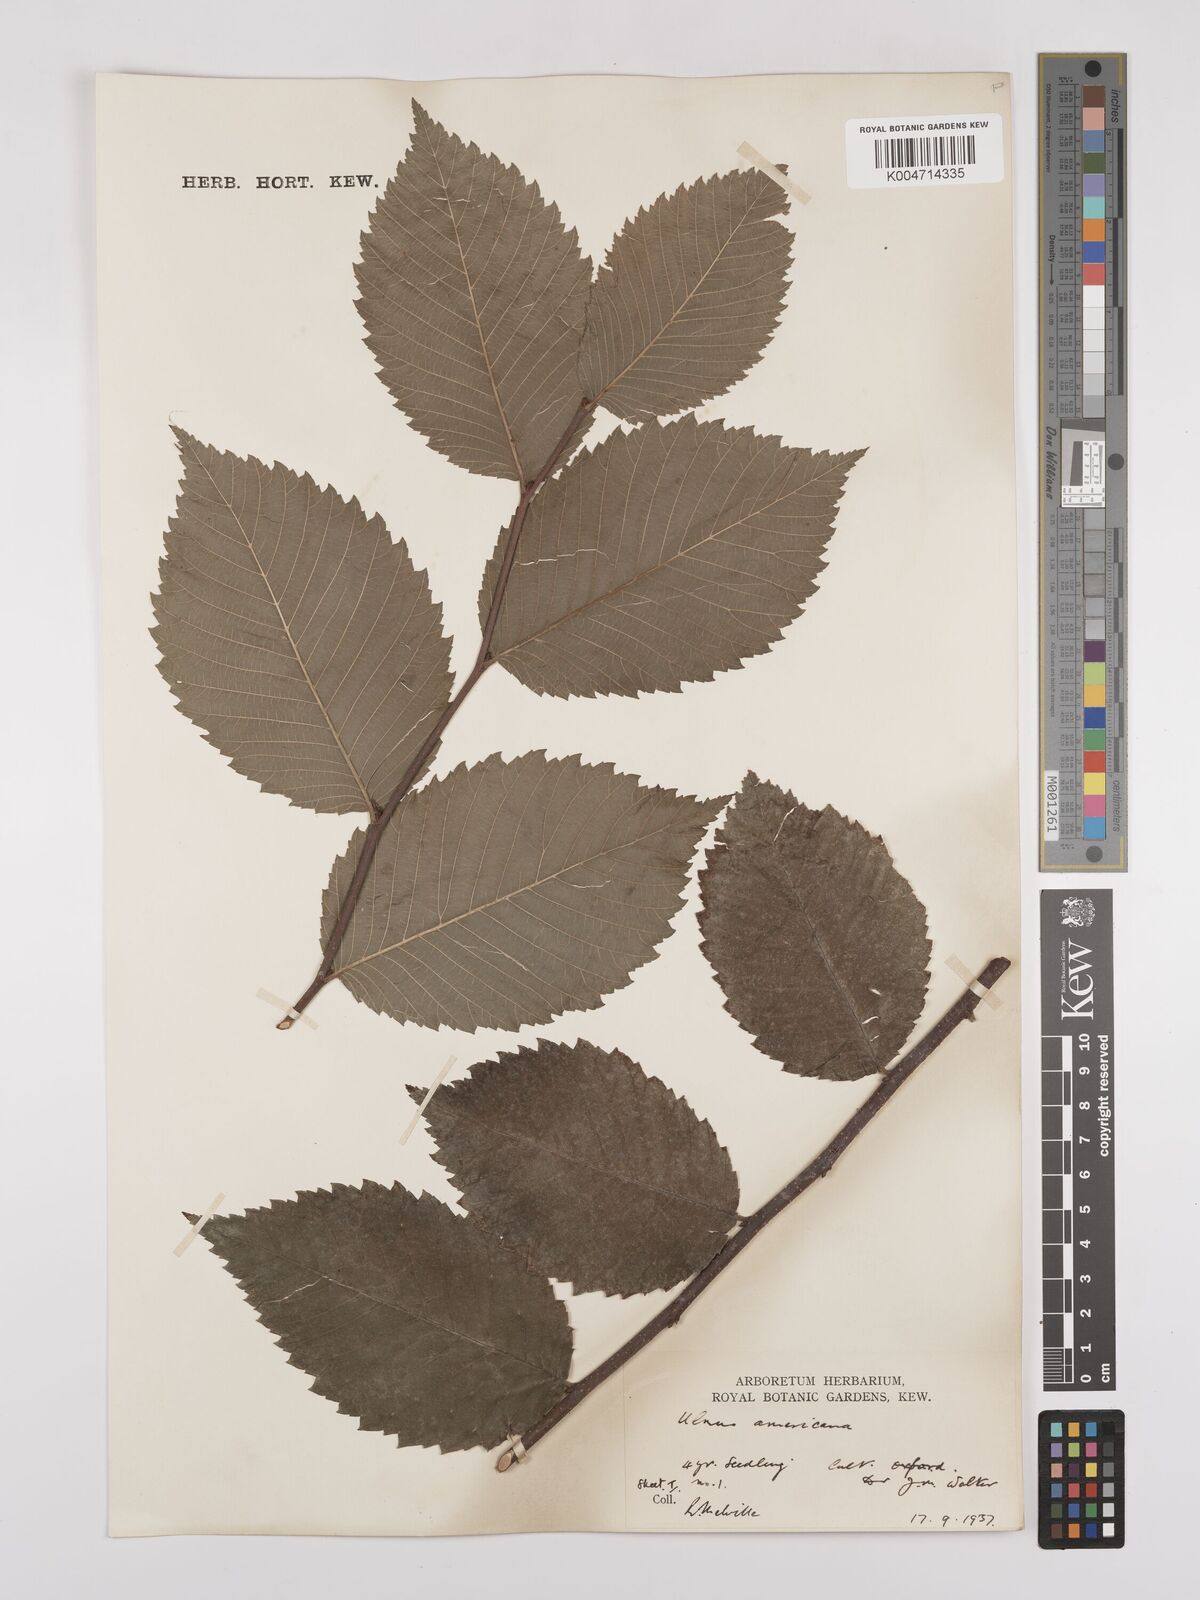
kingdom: Plantae
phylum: Tracheophyta
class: Magnoliopsida
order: Rosales
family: Ulmaceae
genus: Ulmus
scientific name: Ulmus americana
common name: American elm
